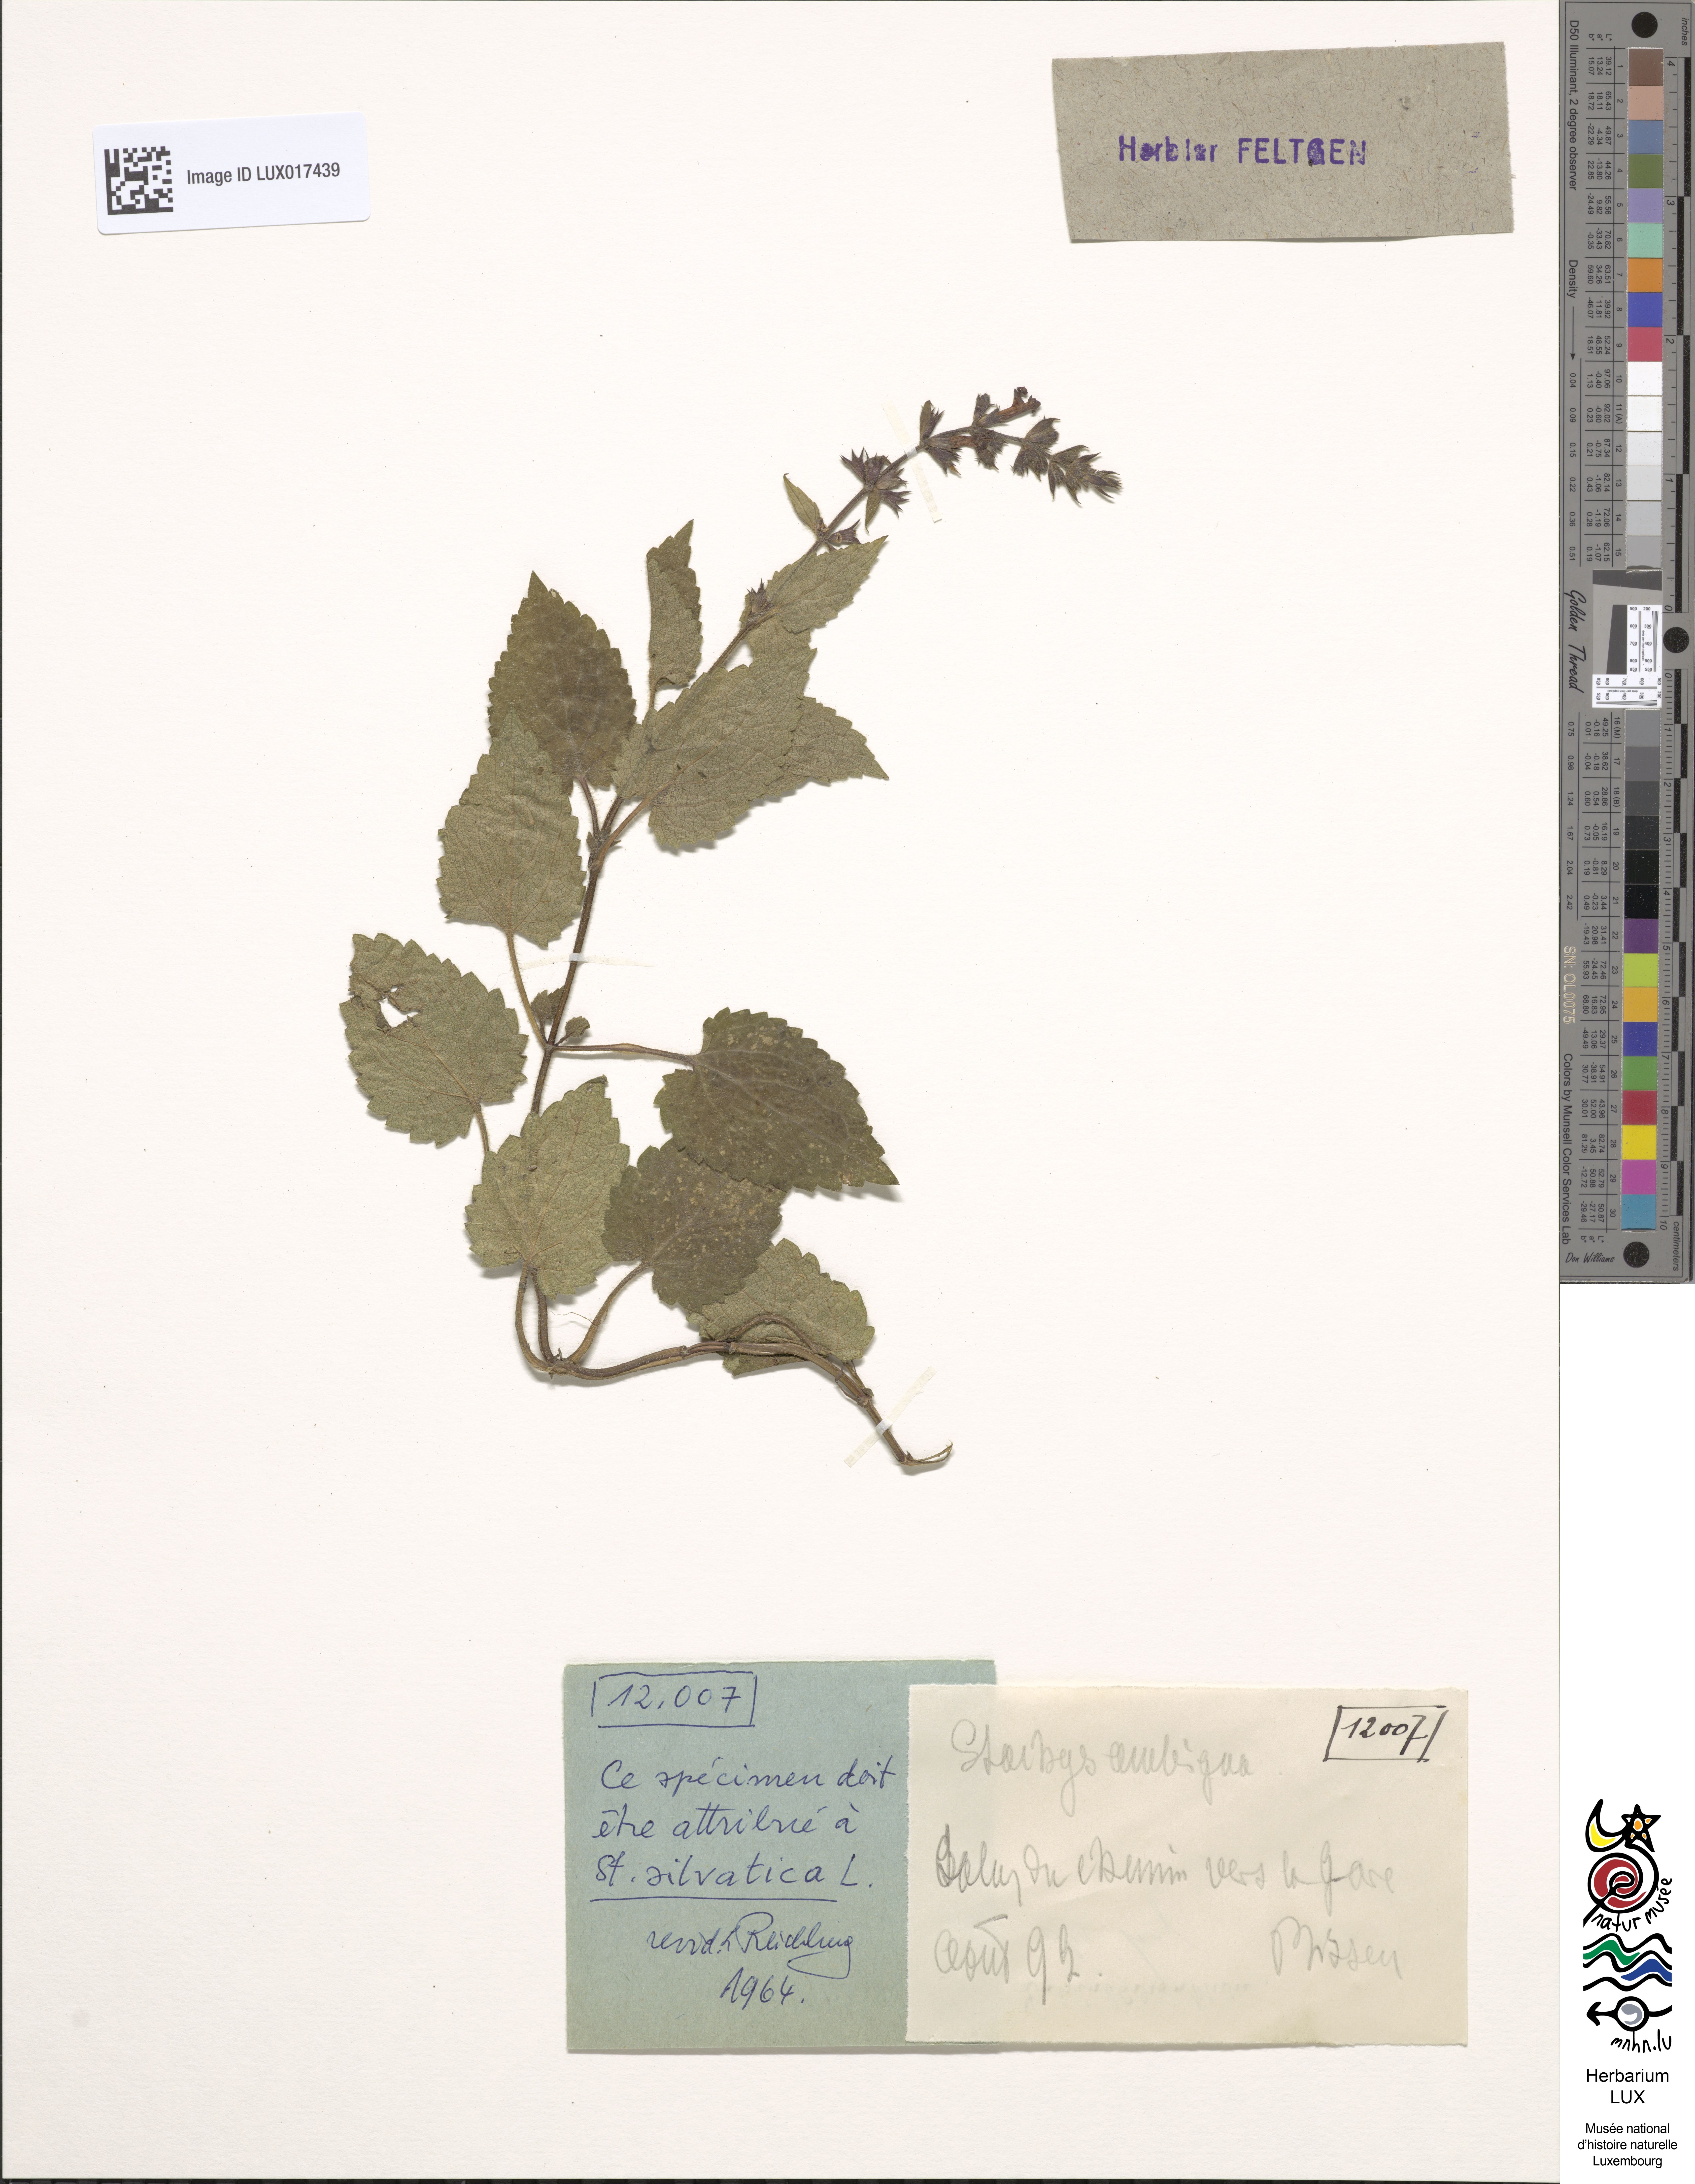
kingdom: Plantae
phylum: Tracheophyta
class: Magnoliopsida
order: Lamiales
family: Lamiaceae
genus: Stachys
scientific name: Stachys sylvatica
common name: Hedge woundwort
